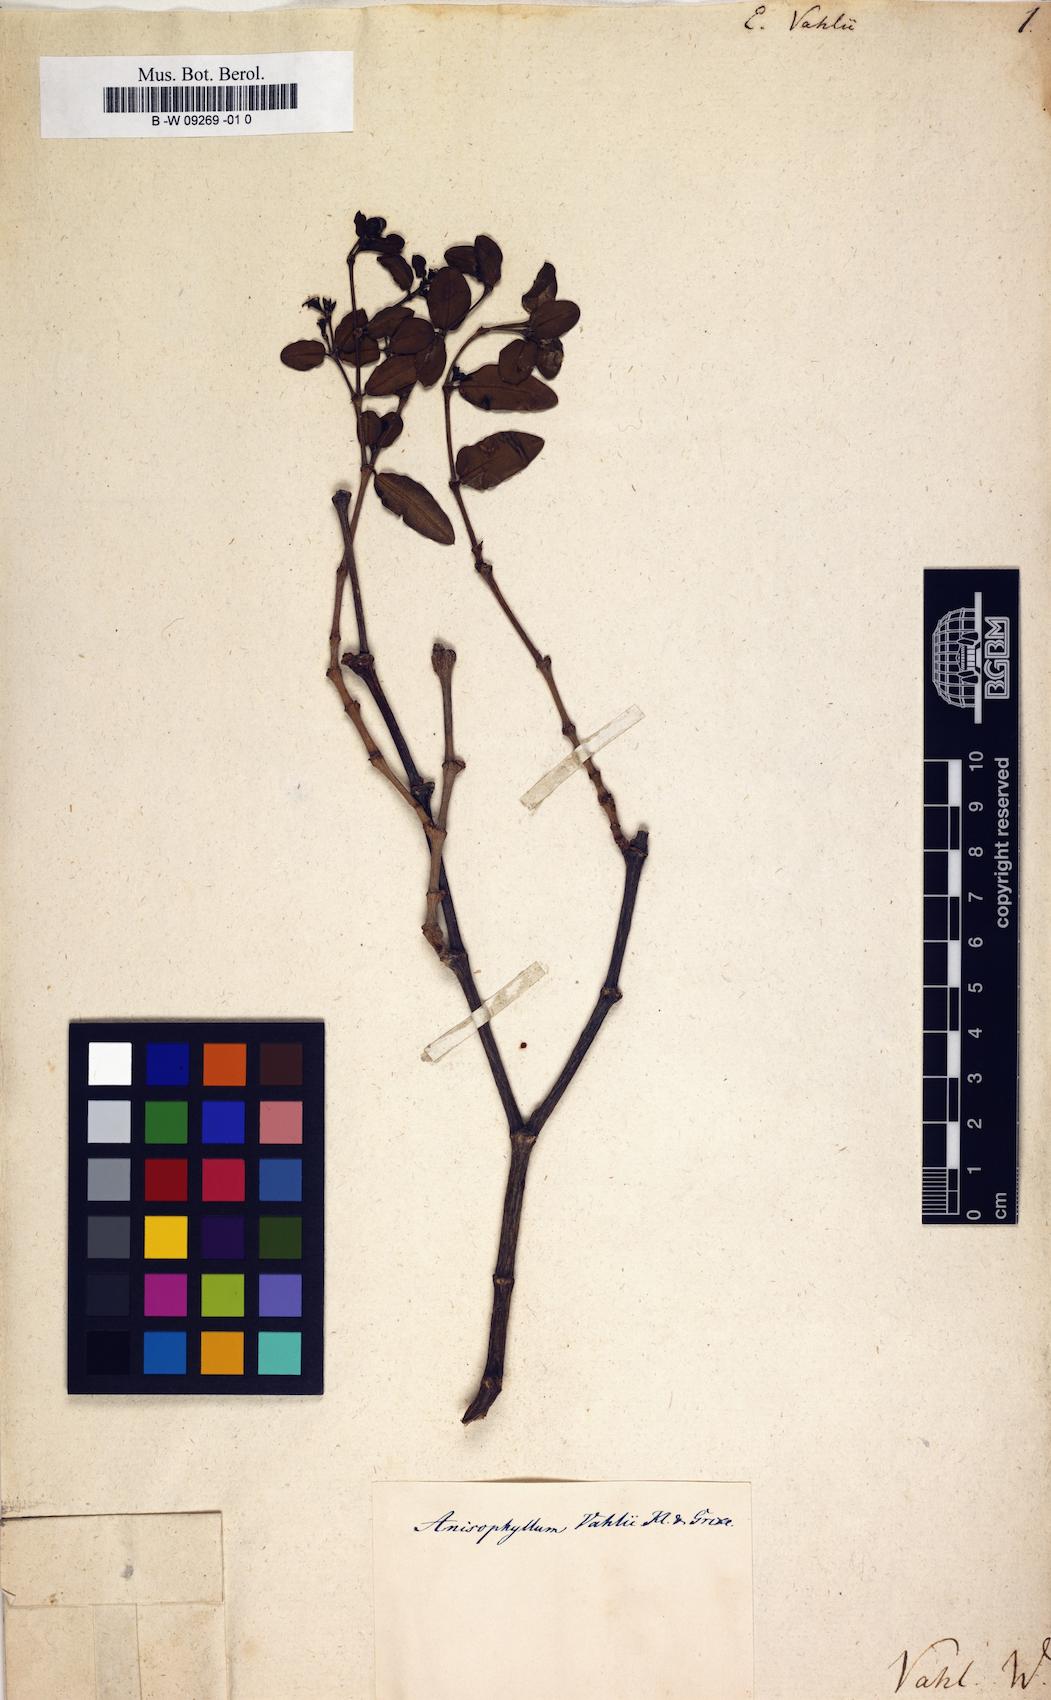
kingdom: Plantae
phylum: Tracheophyta
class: Magnoliopsida
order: Malpighiales
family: Euphorbiaceae
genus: Euphorbia
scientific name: Euphorbia vahlii
